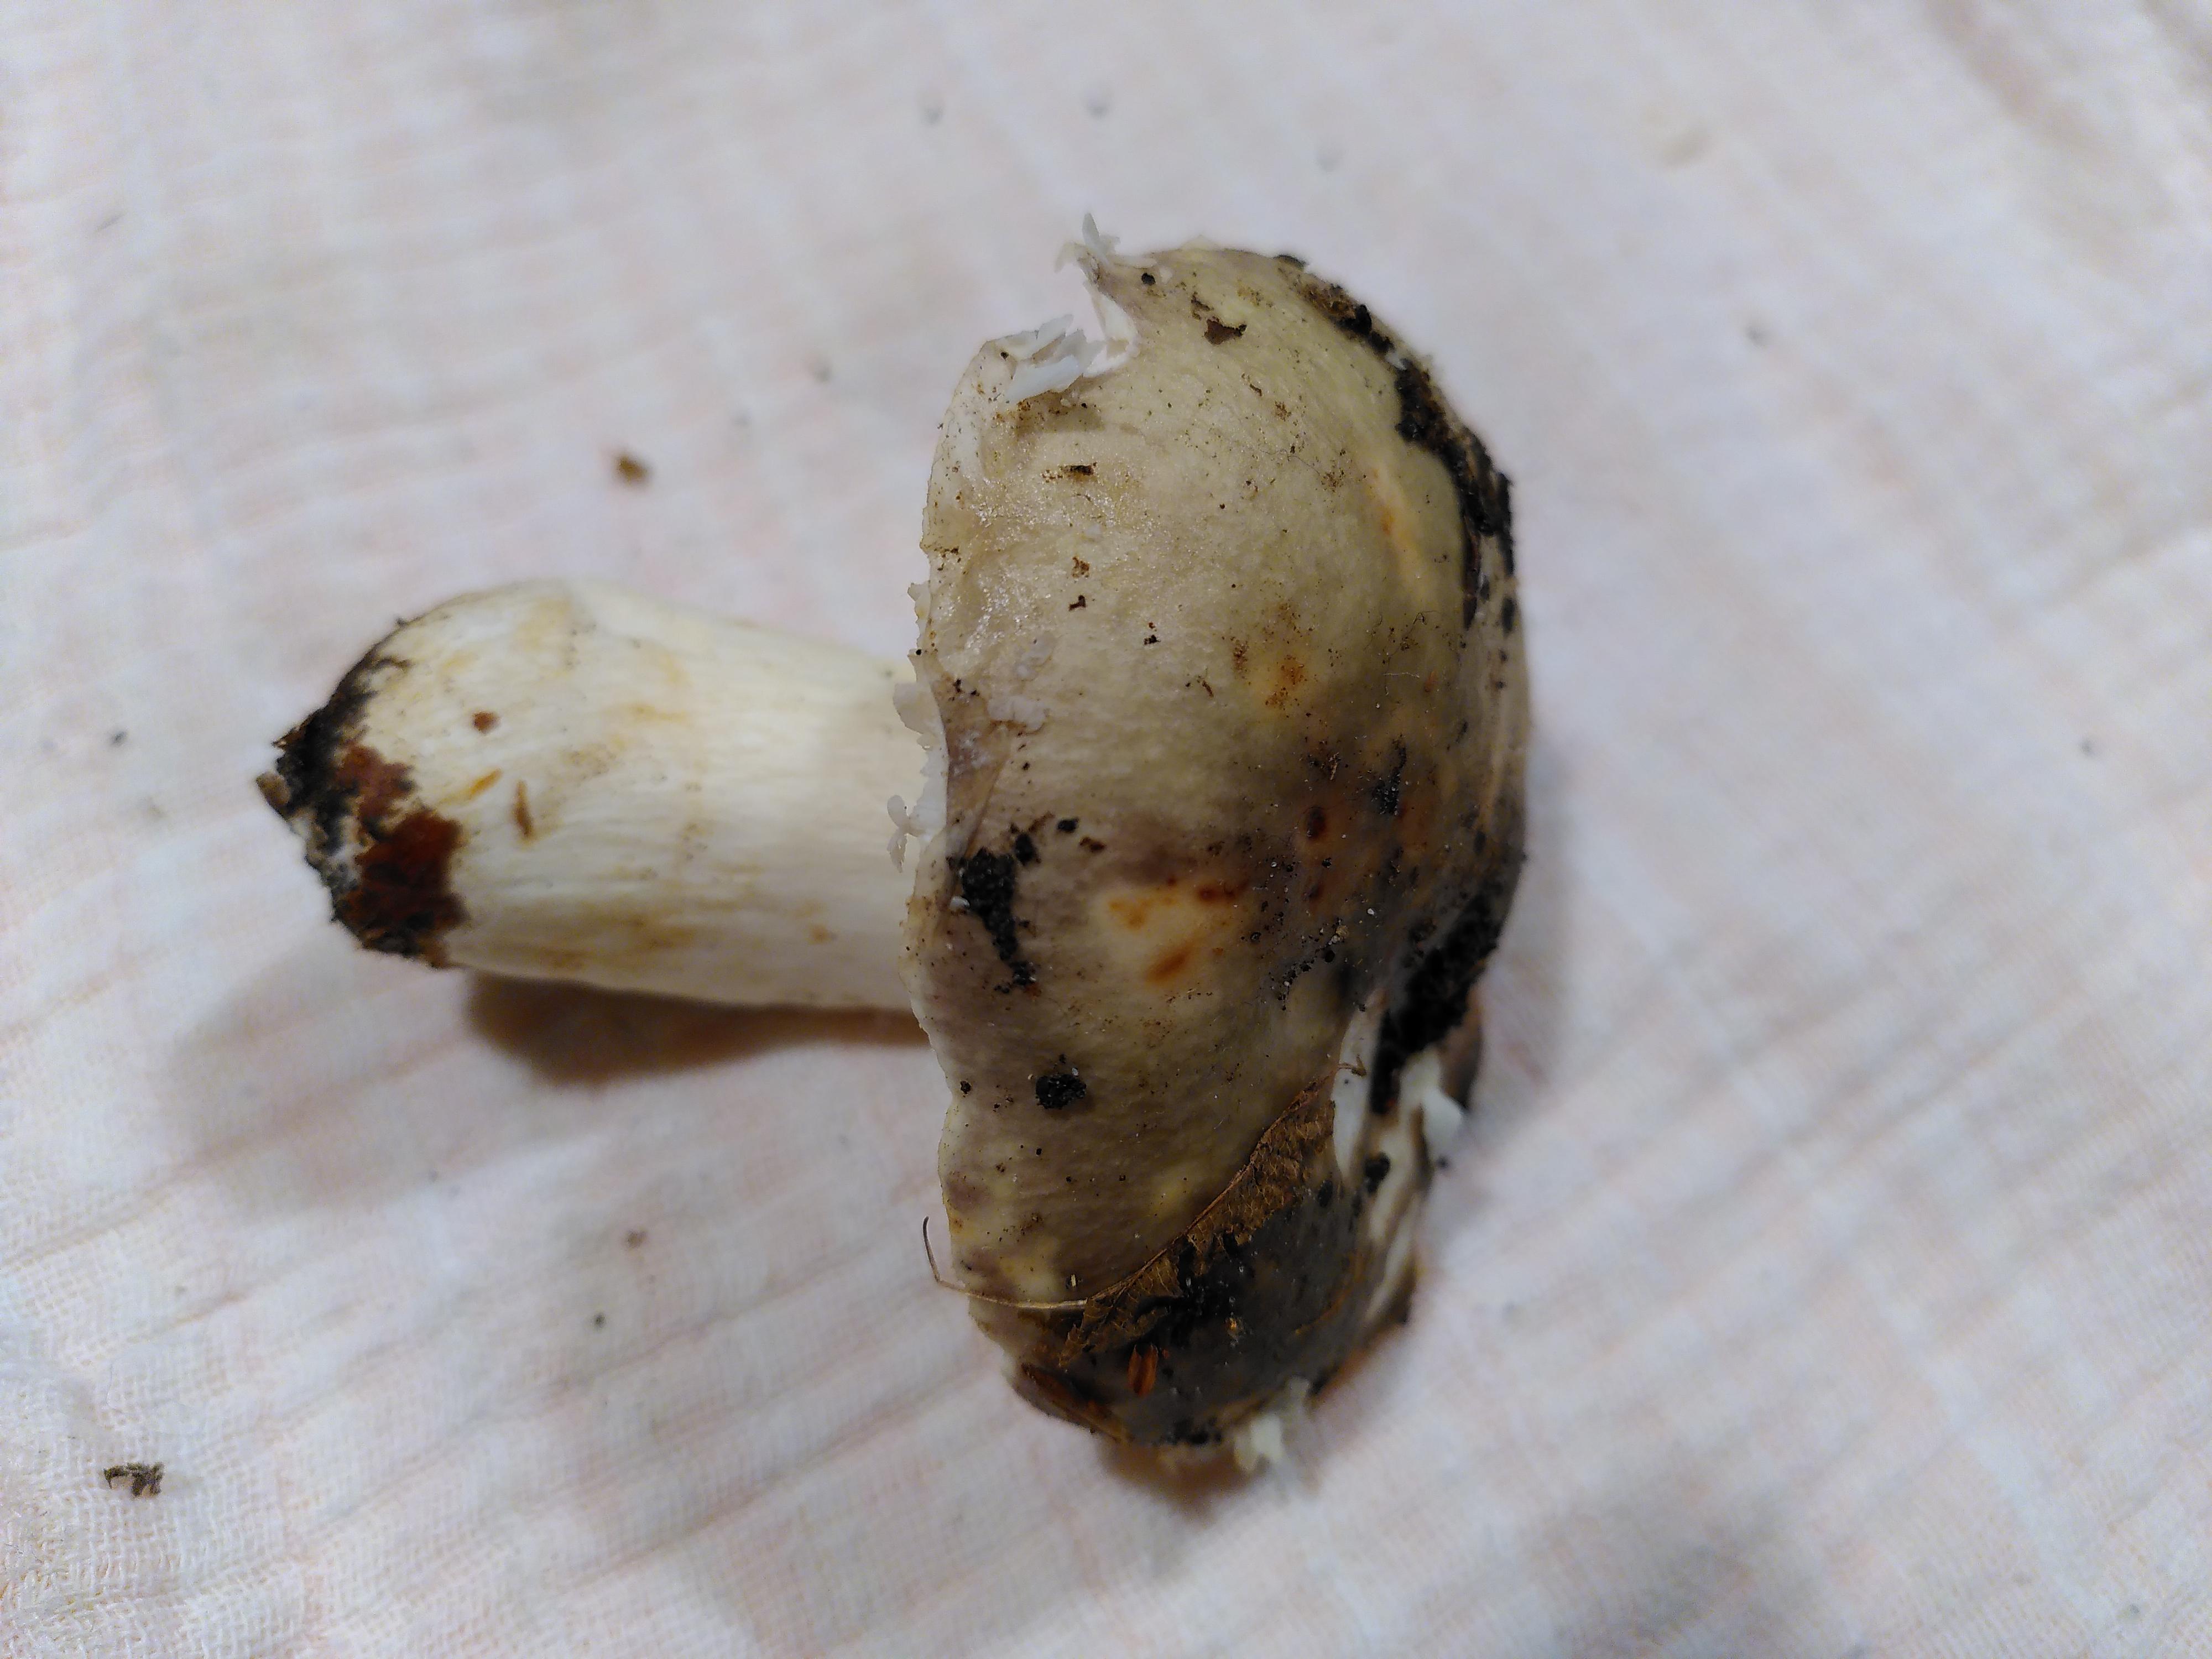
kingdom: Fungi
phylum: Basidiomycota
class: Agaricomycetes
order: Russulales
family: Russulaceae
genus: Russula
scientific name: Russula
